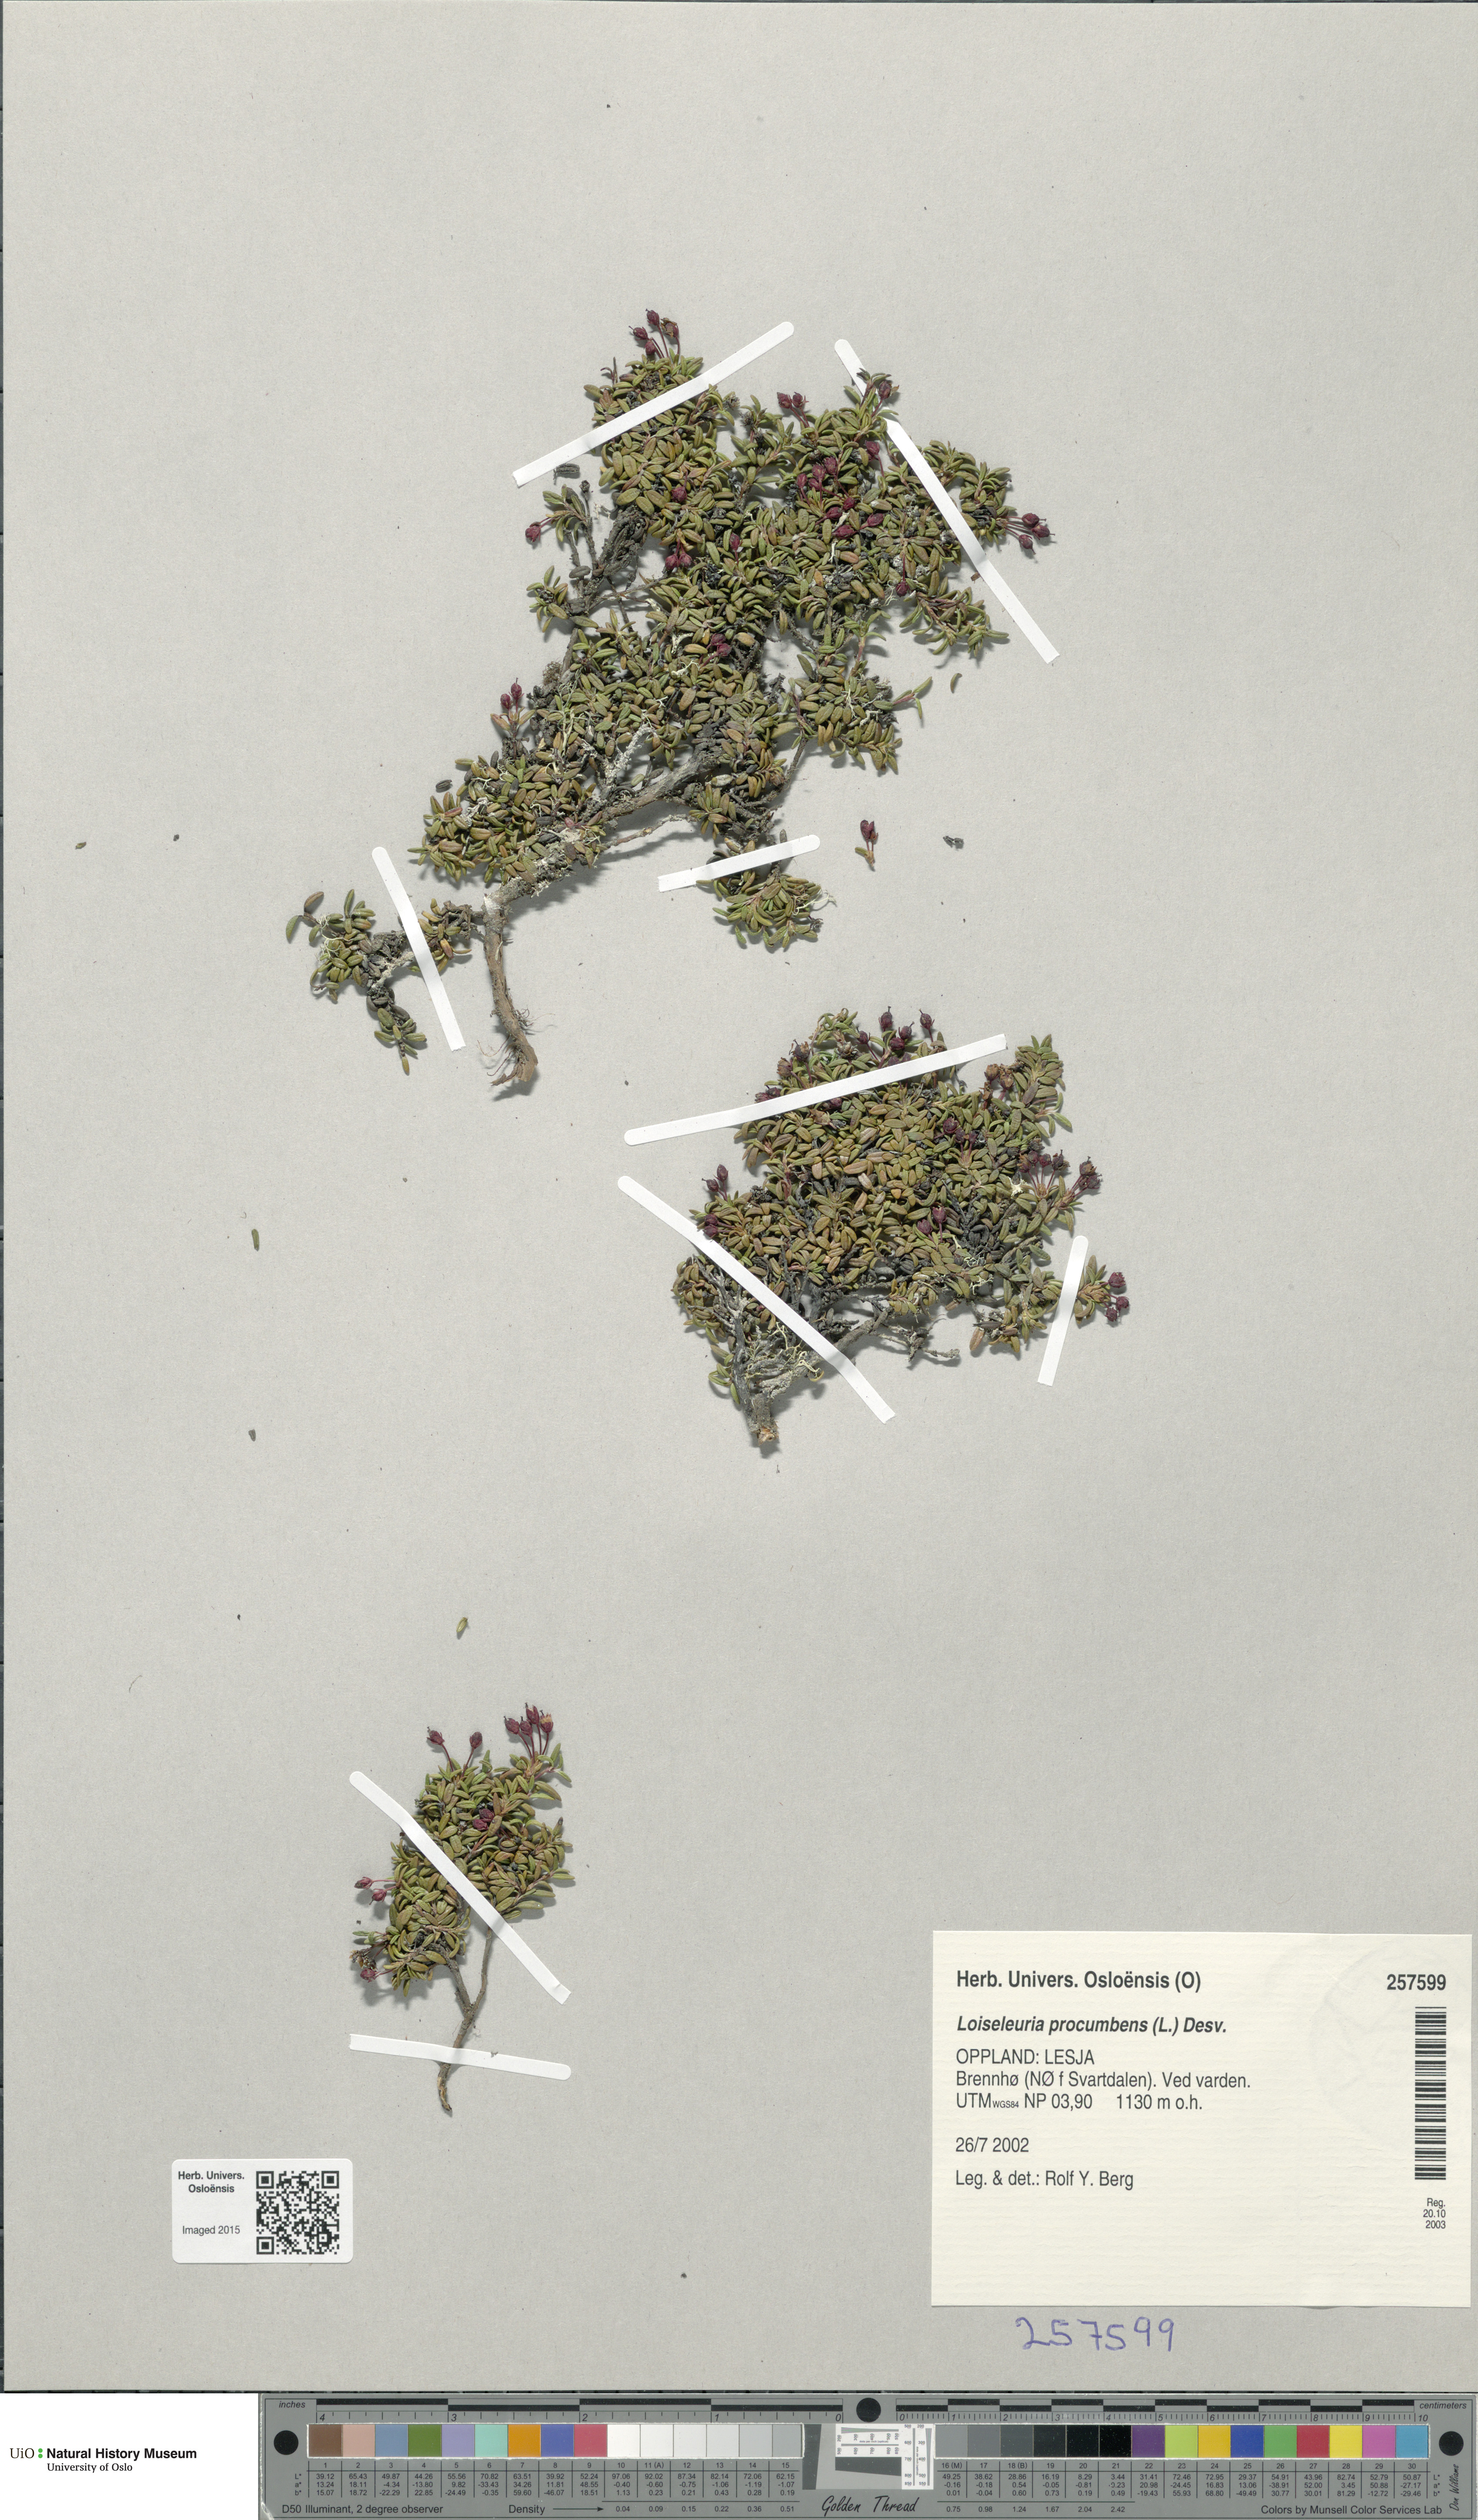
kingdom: Plantae
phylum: Tracheophyta
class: Magnoliopsida
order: Ericales
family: Ericaceae
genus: Kalmia
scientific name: Kalmia procumbens
